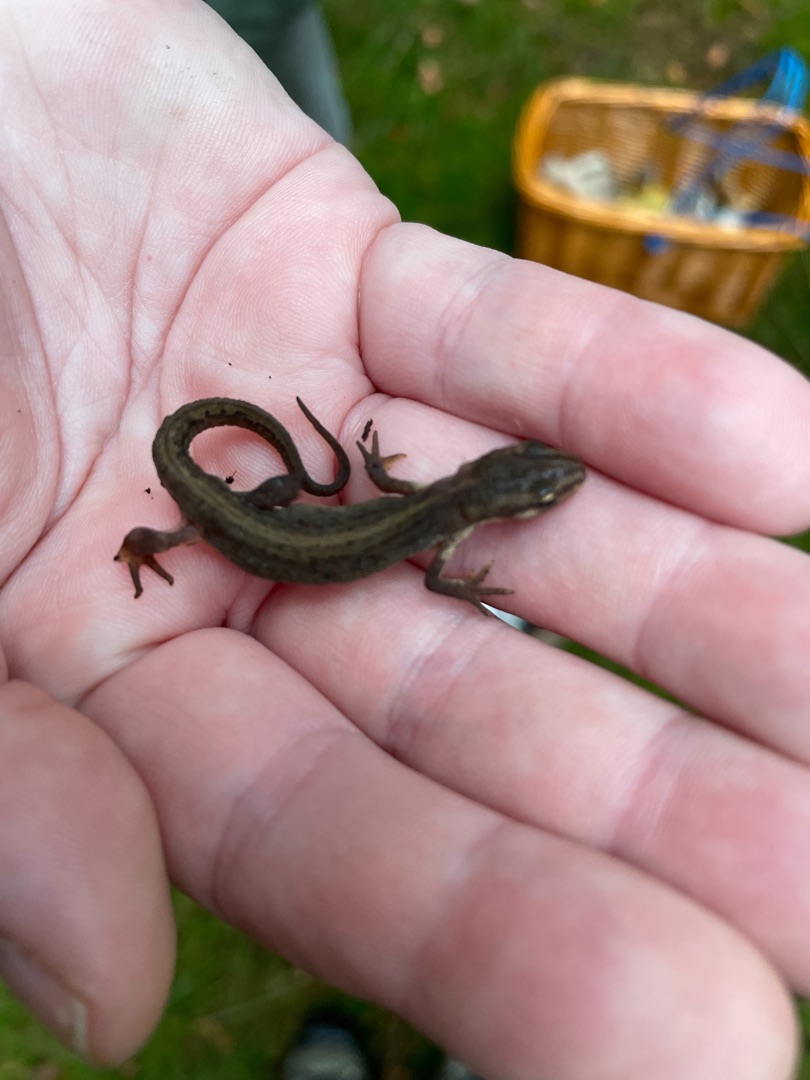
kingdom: Animalia
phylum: Chordata
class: Amphibia
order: Caudata
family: Salamandridae
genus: Lissotriton
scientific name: Lissotriton vulgaris
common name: Lille vandsalamander
